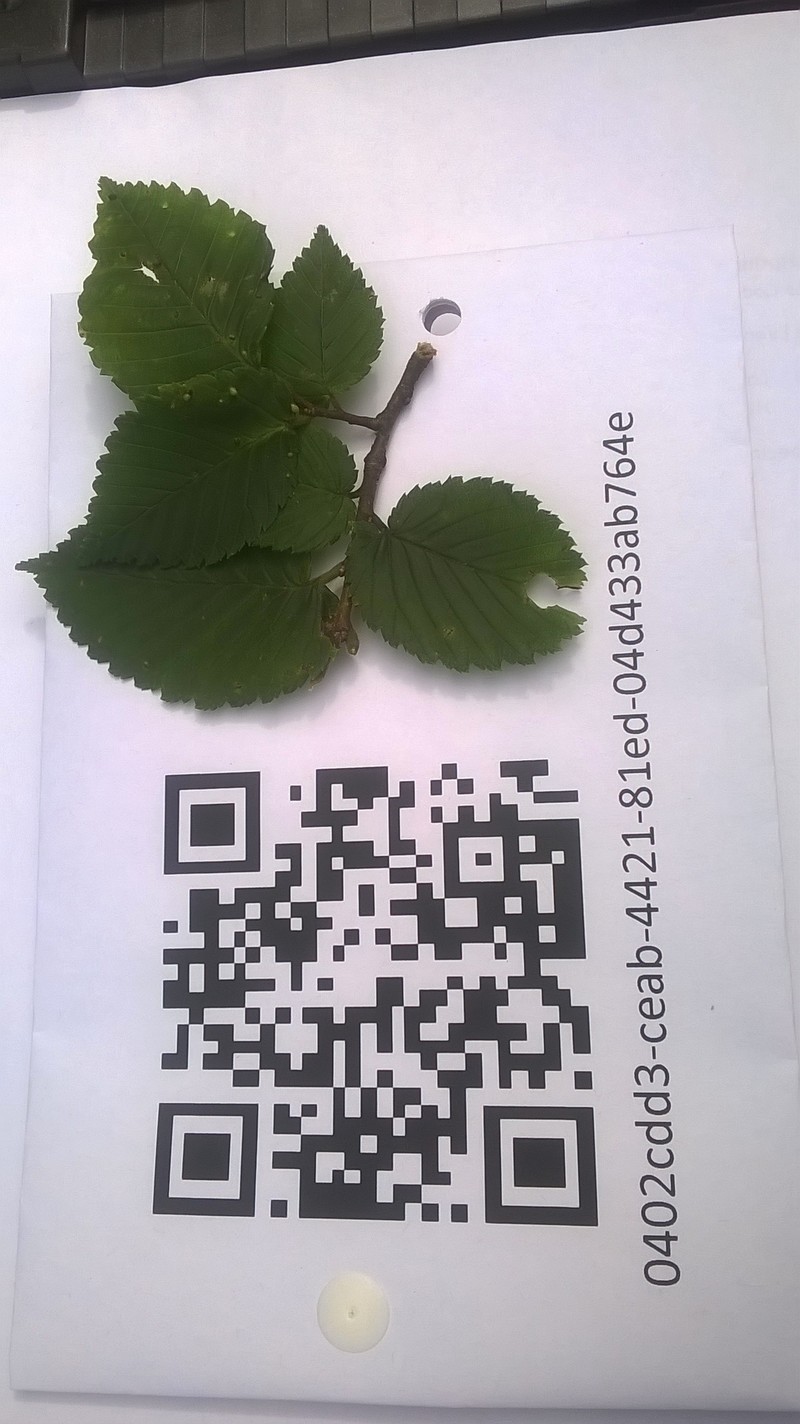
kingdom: Animalia
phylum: Arthropoda
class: Arachnida
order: Trombidiformes
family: Eriophyidae
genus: Aceria
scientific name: Aceria brevipunctata
